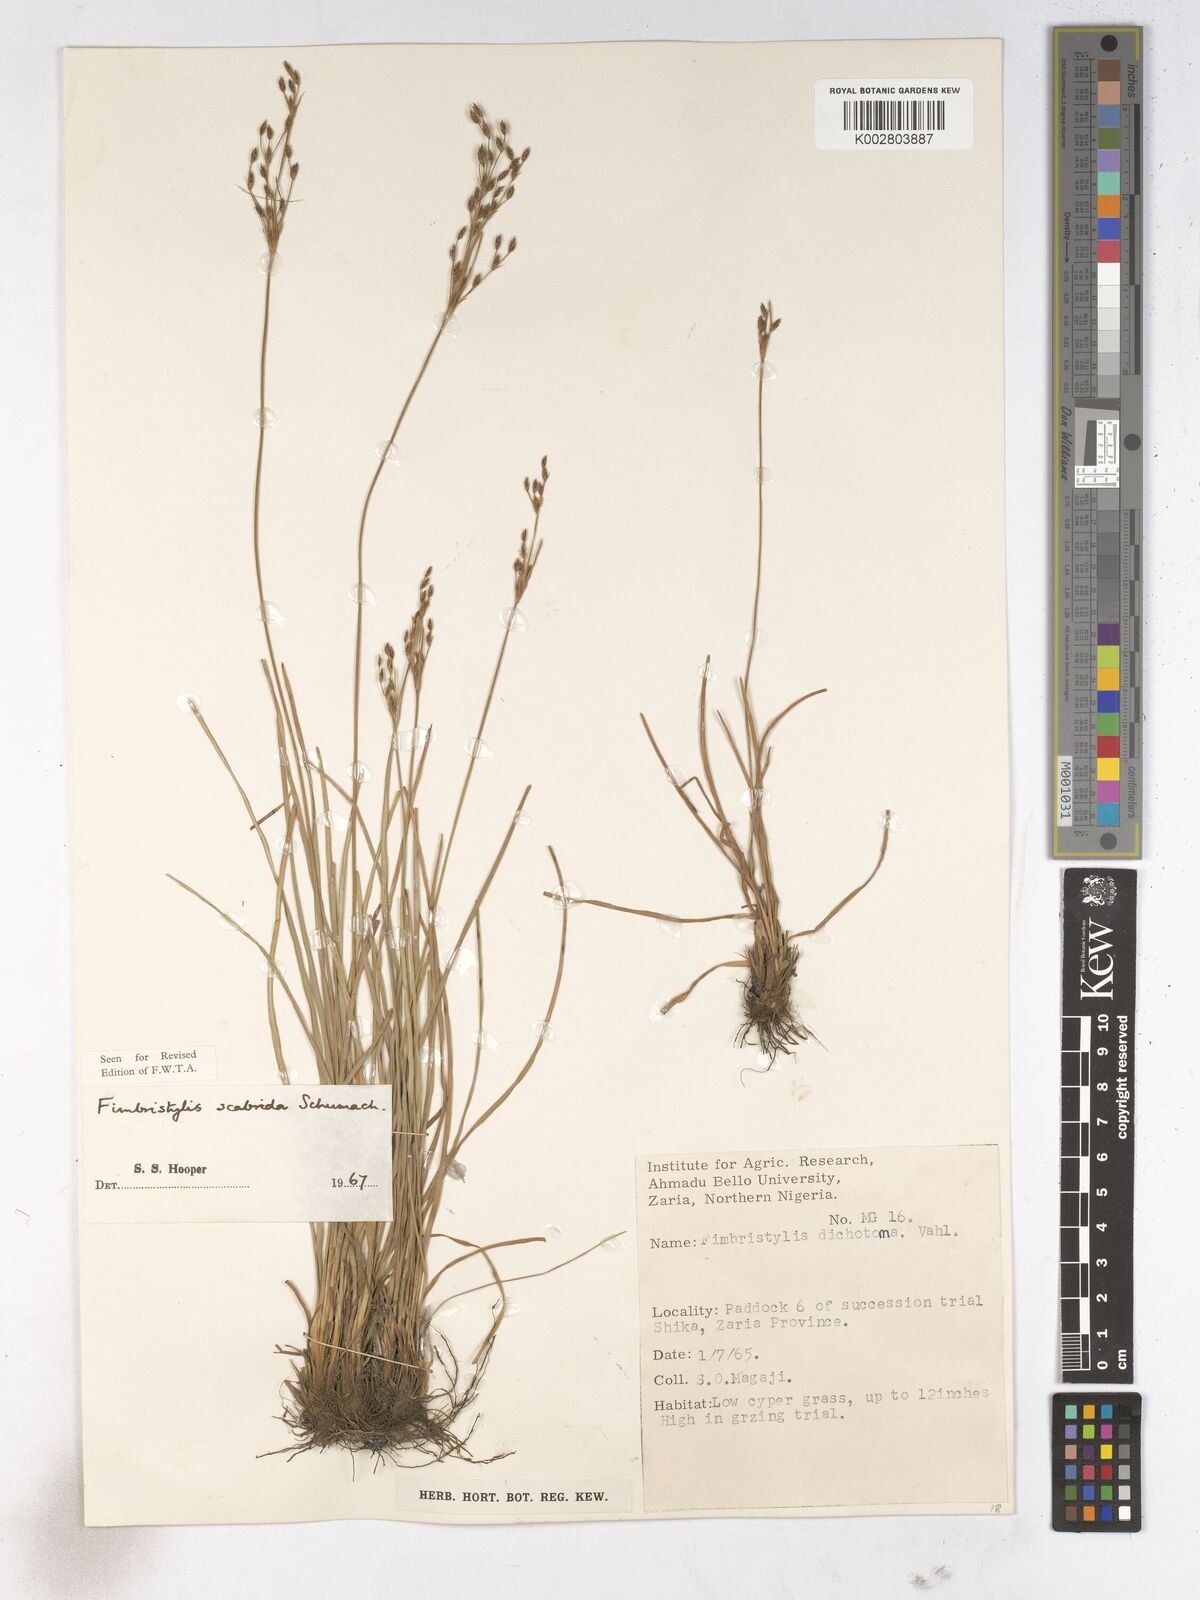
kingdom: Plantae
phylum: Tracheophyta
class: Liliopsida
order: Poales
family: Cyperaceae
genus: Fimbristylis
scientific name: Fimbristylis scabrida
